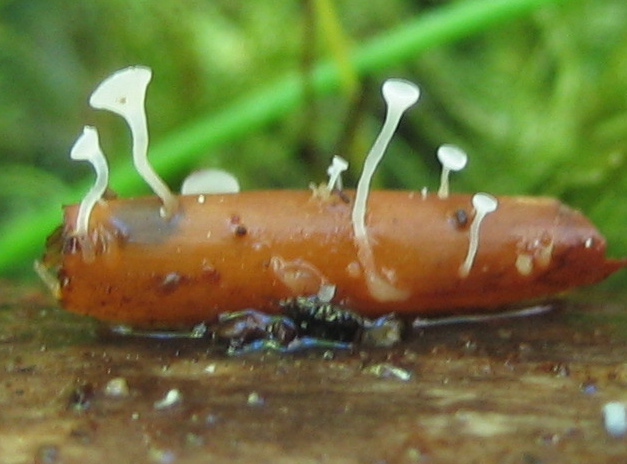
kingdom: Fungi
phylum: Ascomycota
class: Leotiomycetes
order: Helotiales
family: Pezizellaceae
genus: Pezizella
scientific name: Pezizella fagi
